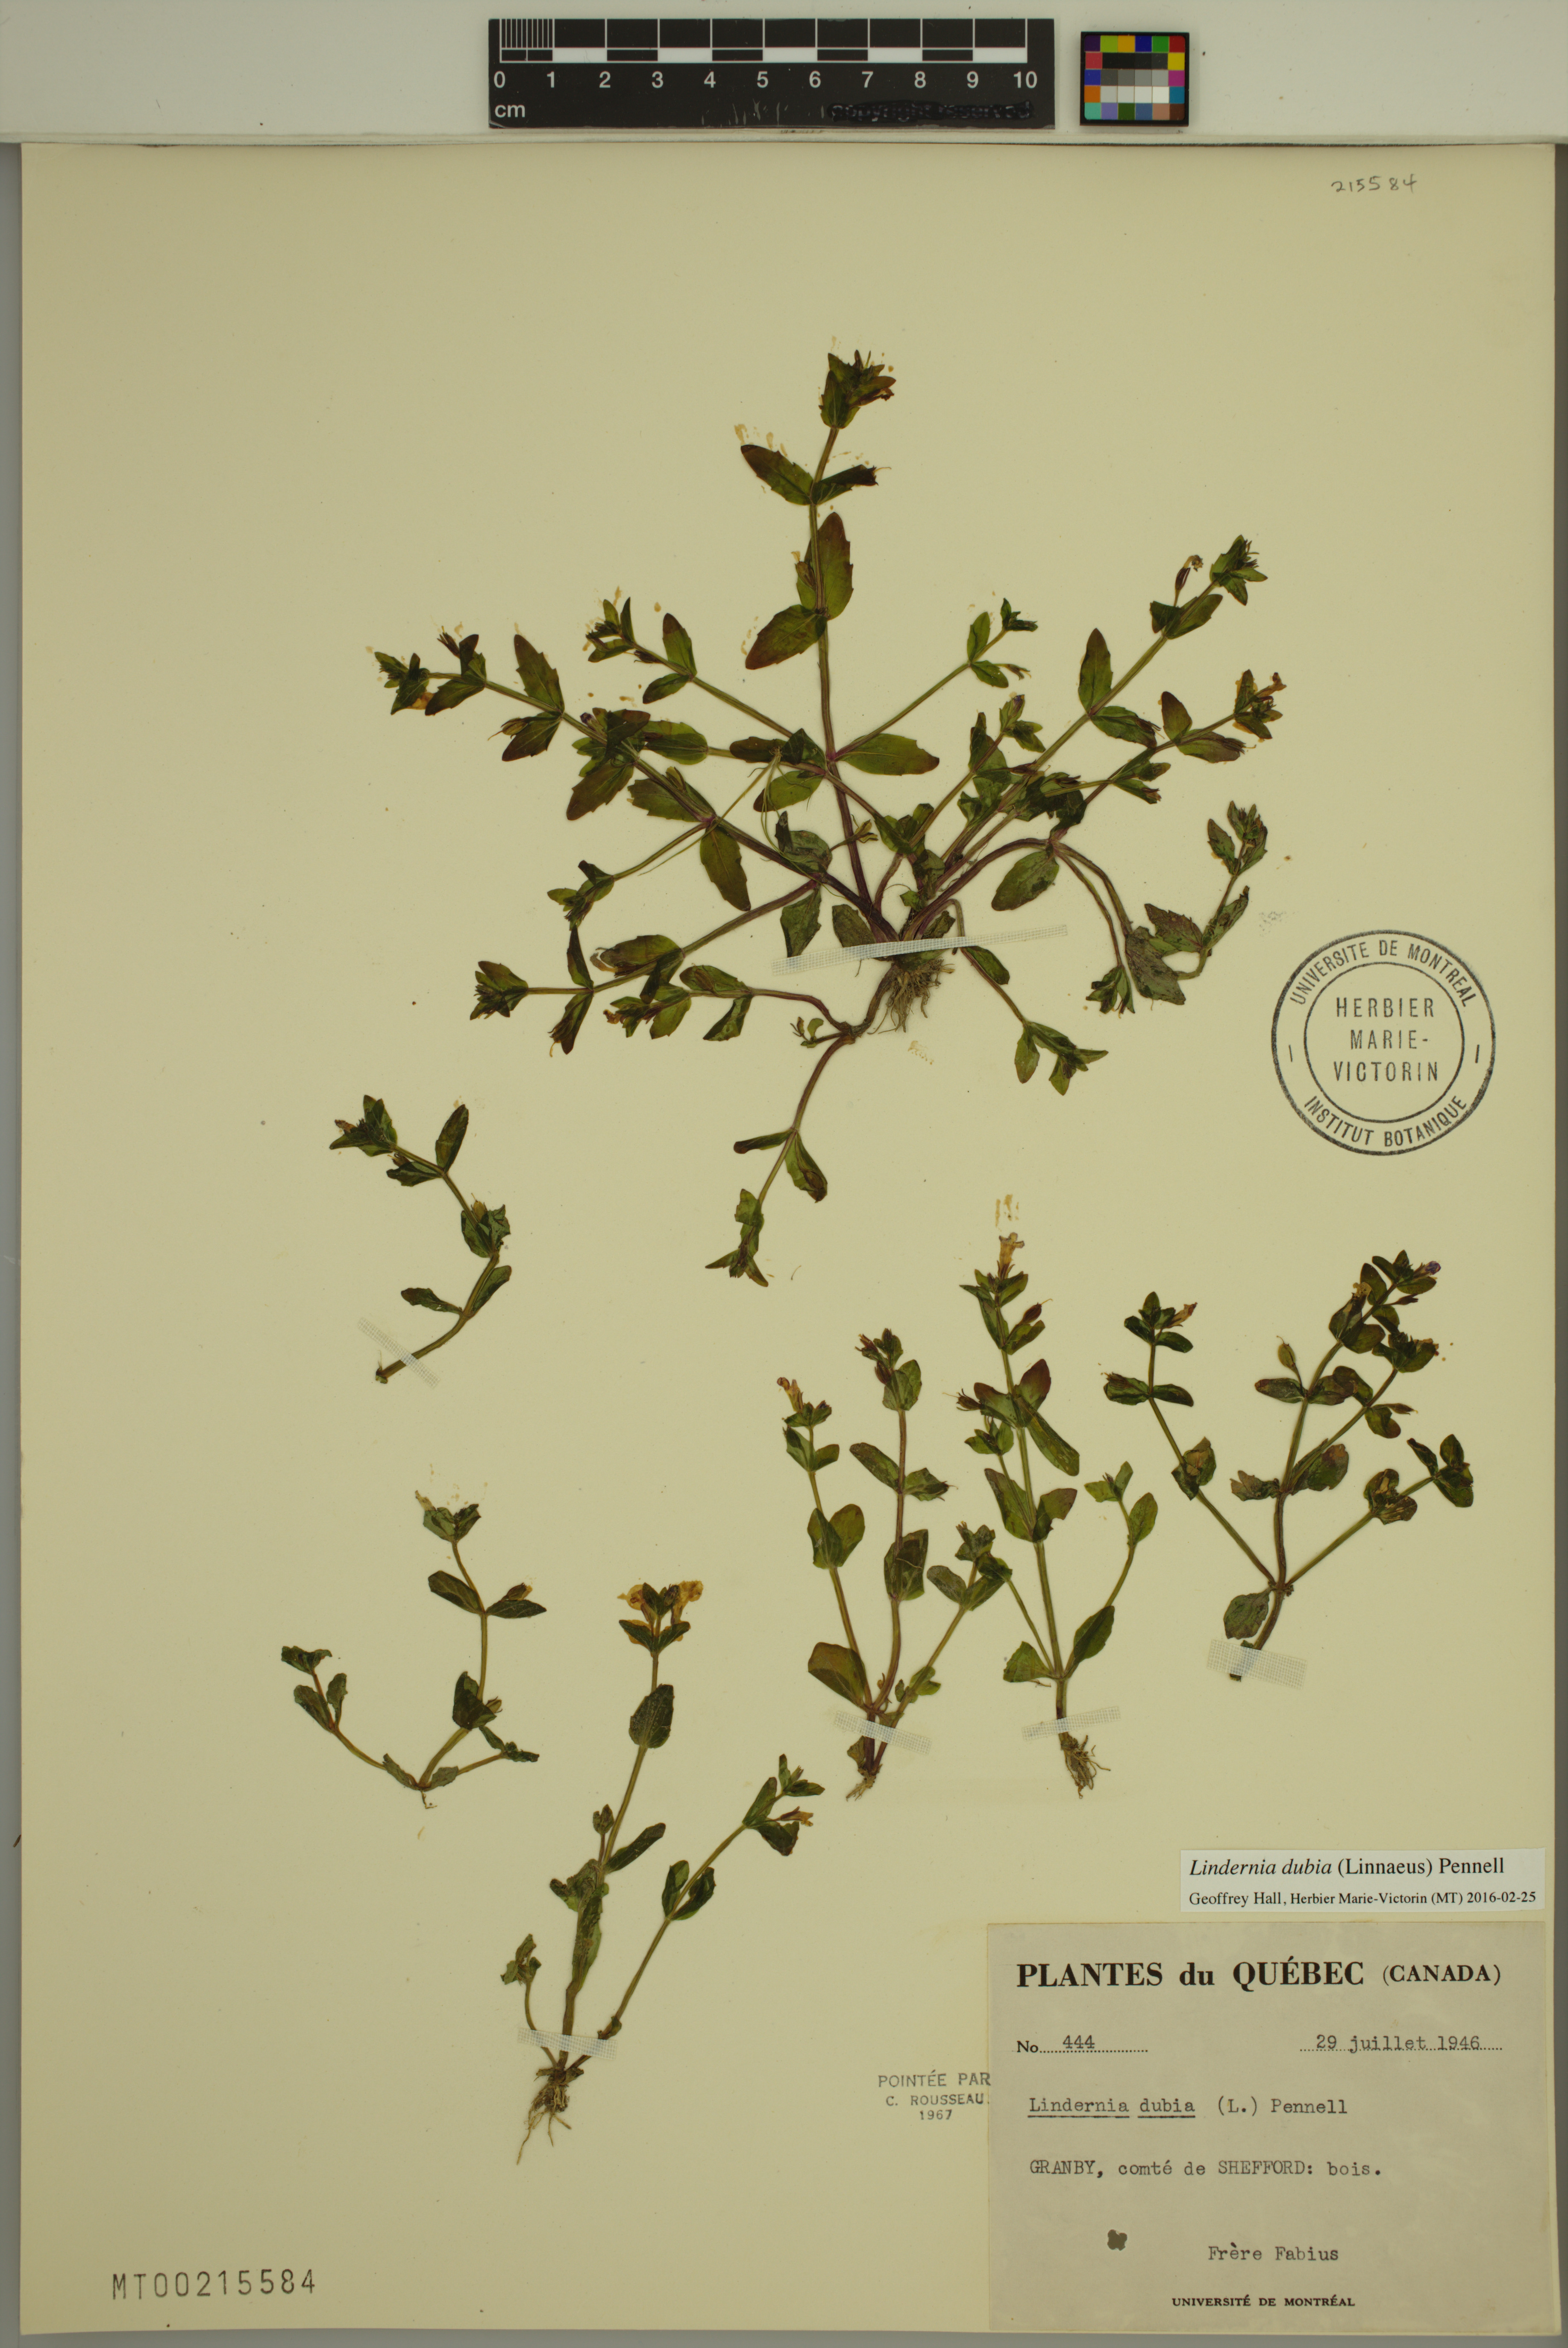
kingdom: Plantae
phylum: Tracheophyta
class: Magnoliopsida
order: Lamiales
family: Linderniaceae
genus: Lindernia
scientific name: Lindernia dubia
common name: Annual false pimpernel
